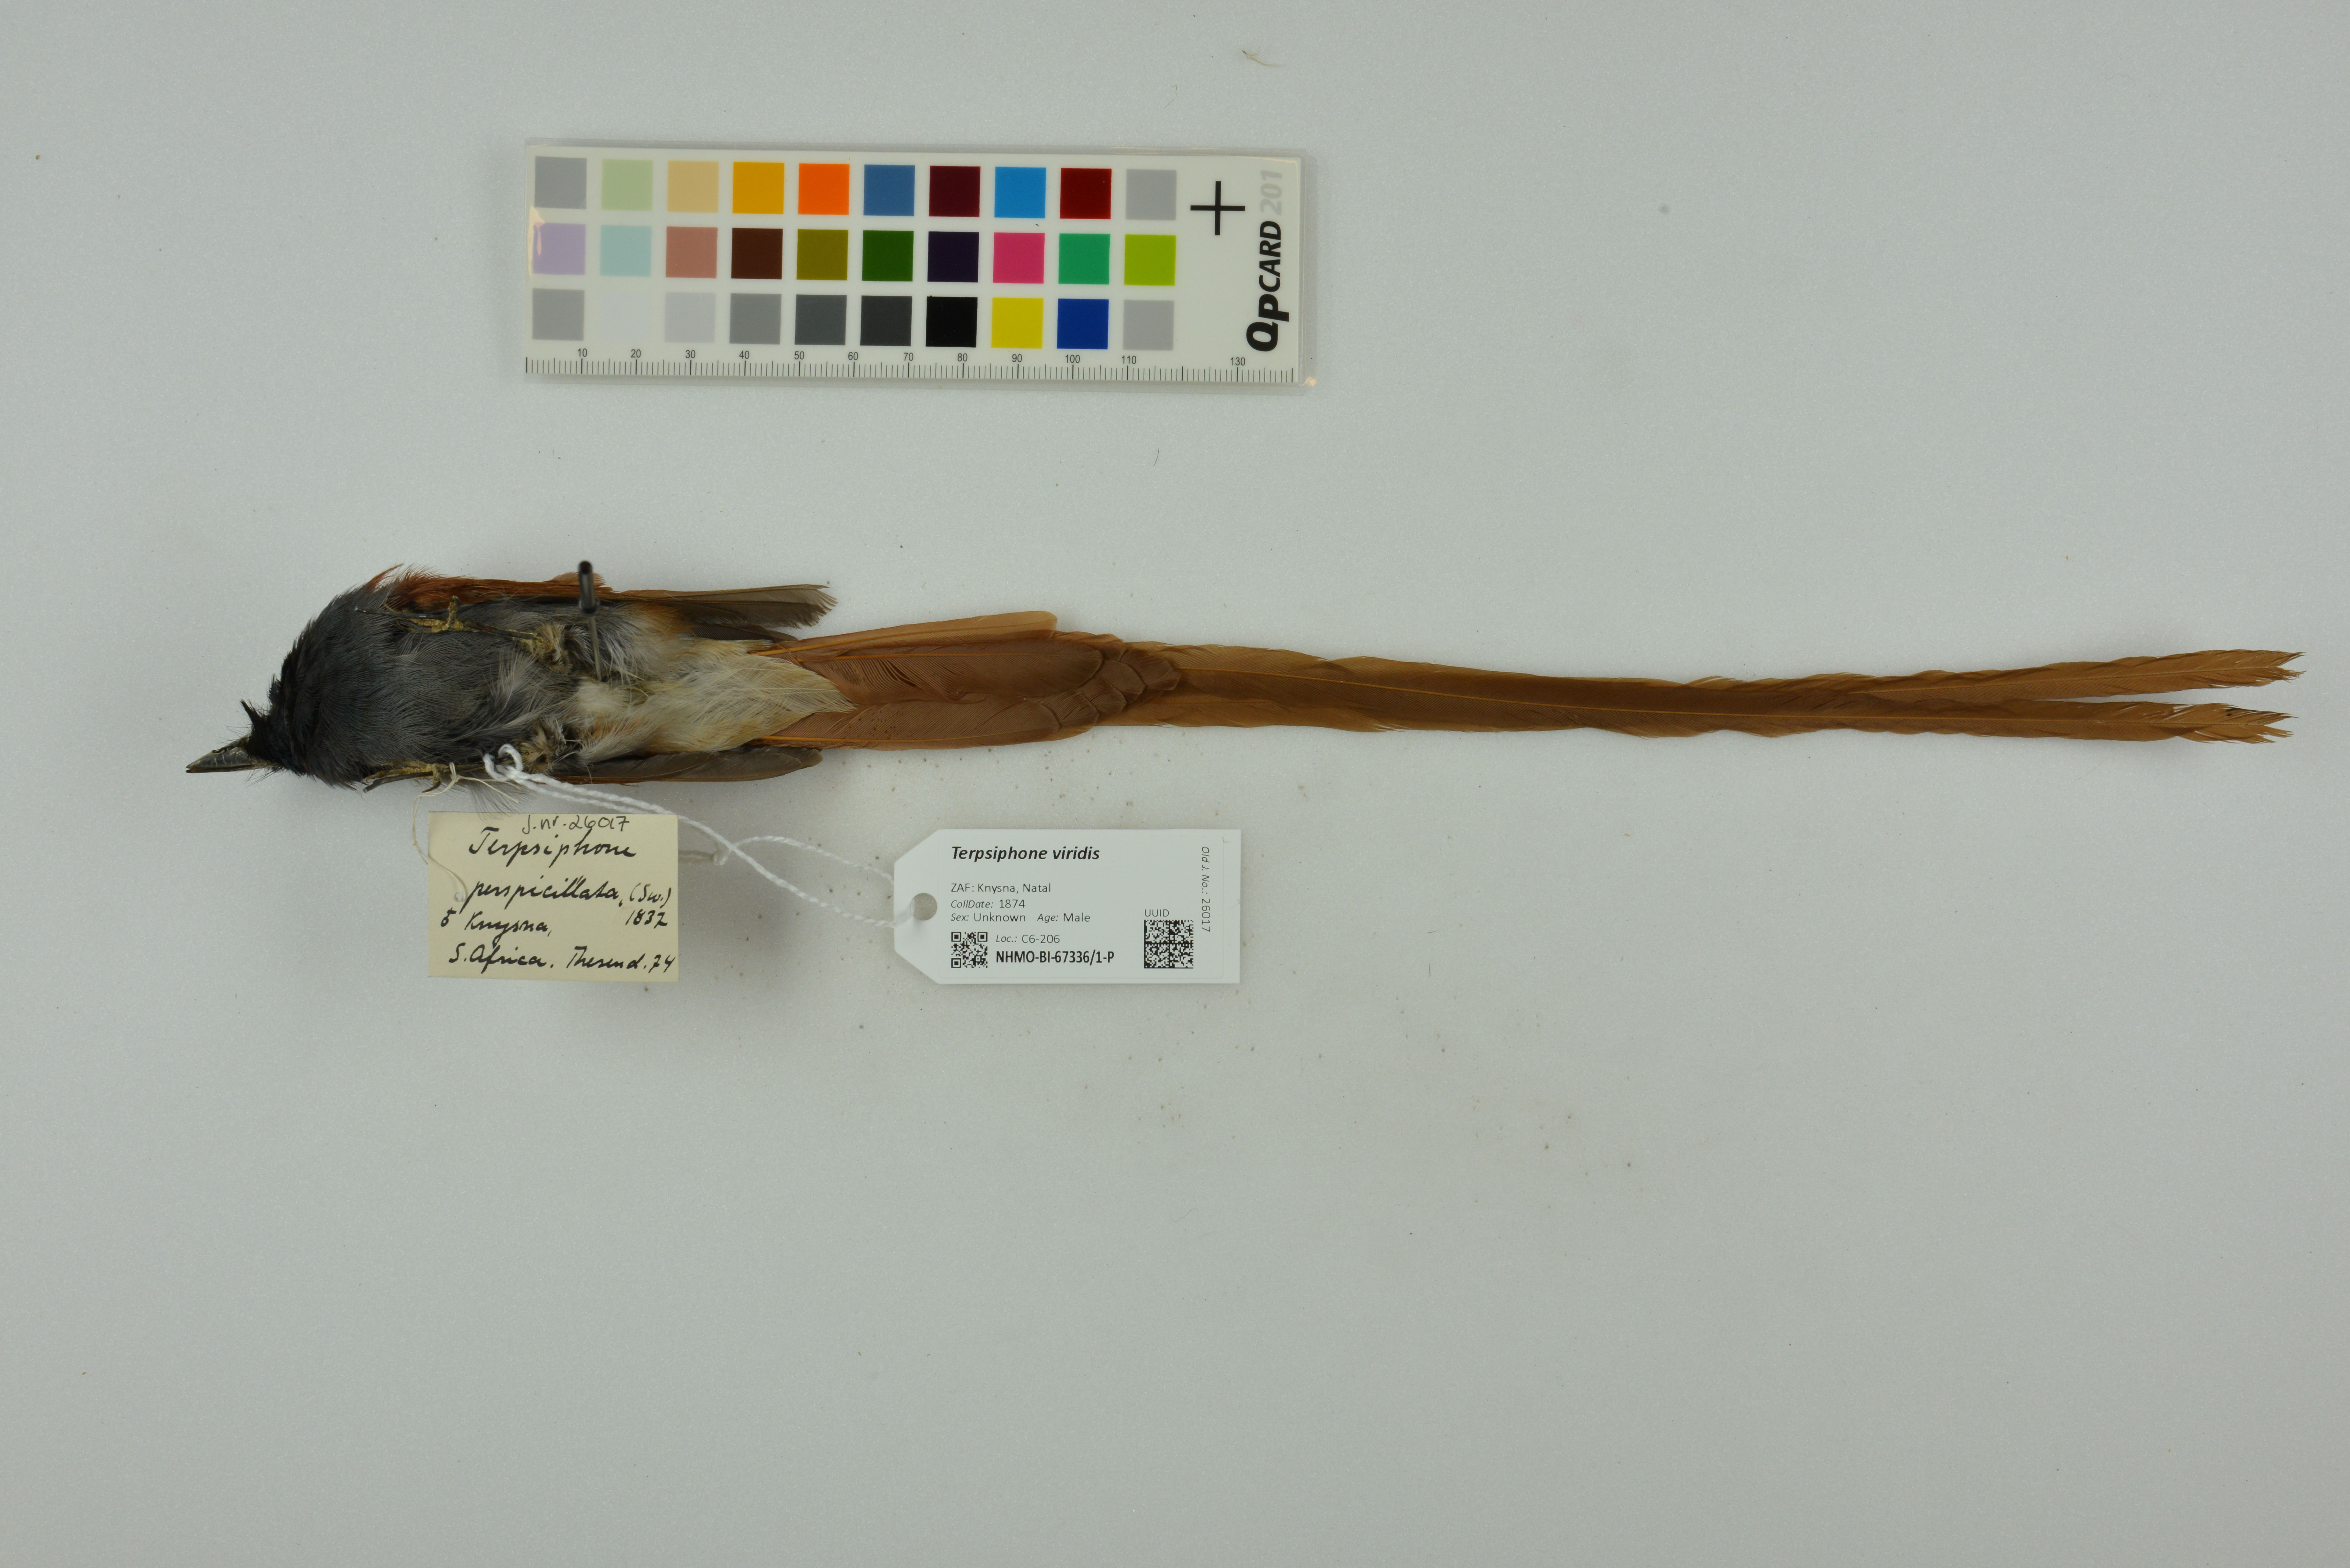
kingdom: Animalia
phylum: Chordata
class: Aves
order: Passeriformes
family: Monarchidae
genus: Terpsiphone
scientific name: Terpsiphone viridis
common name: African paradise flycatcher
